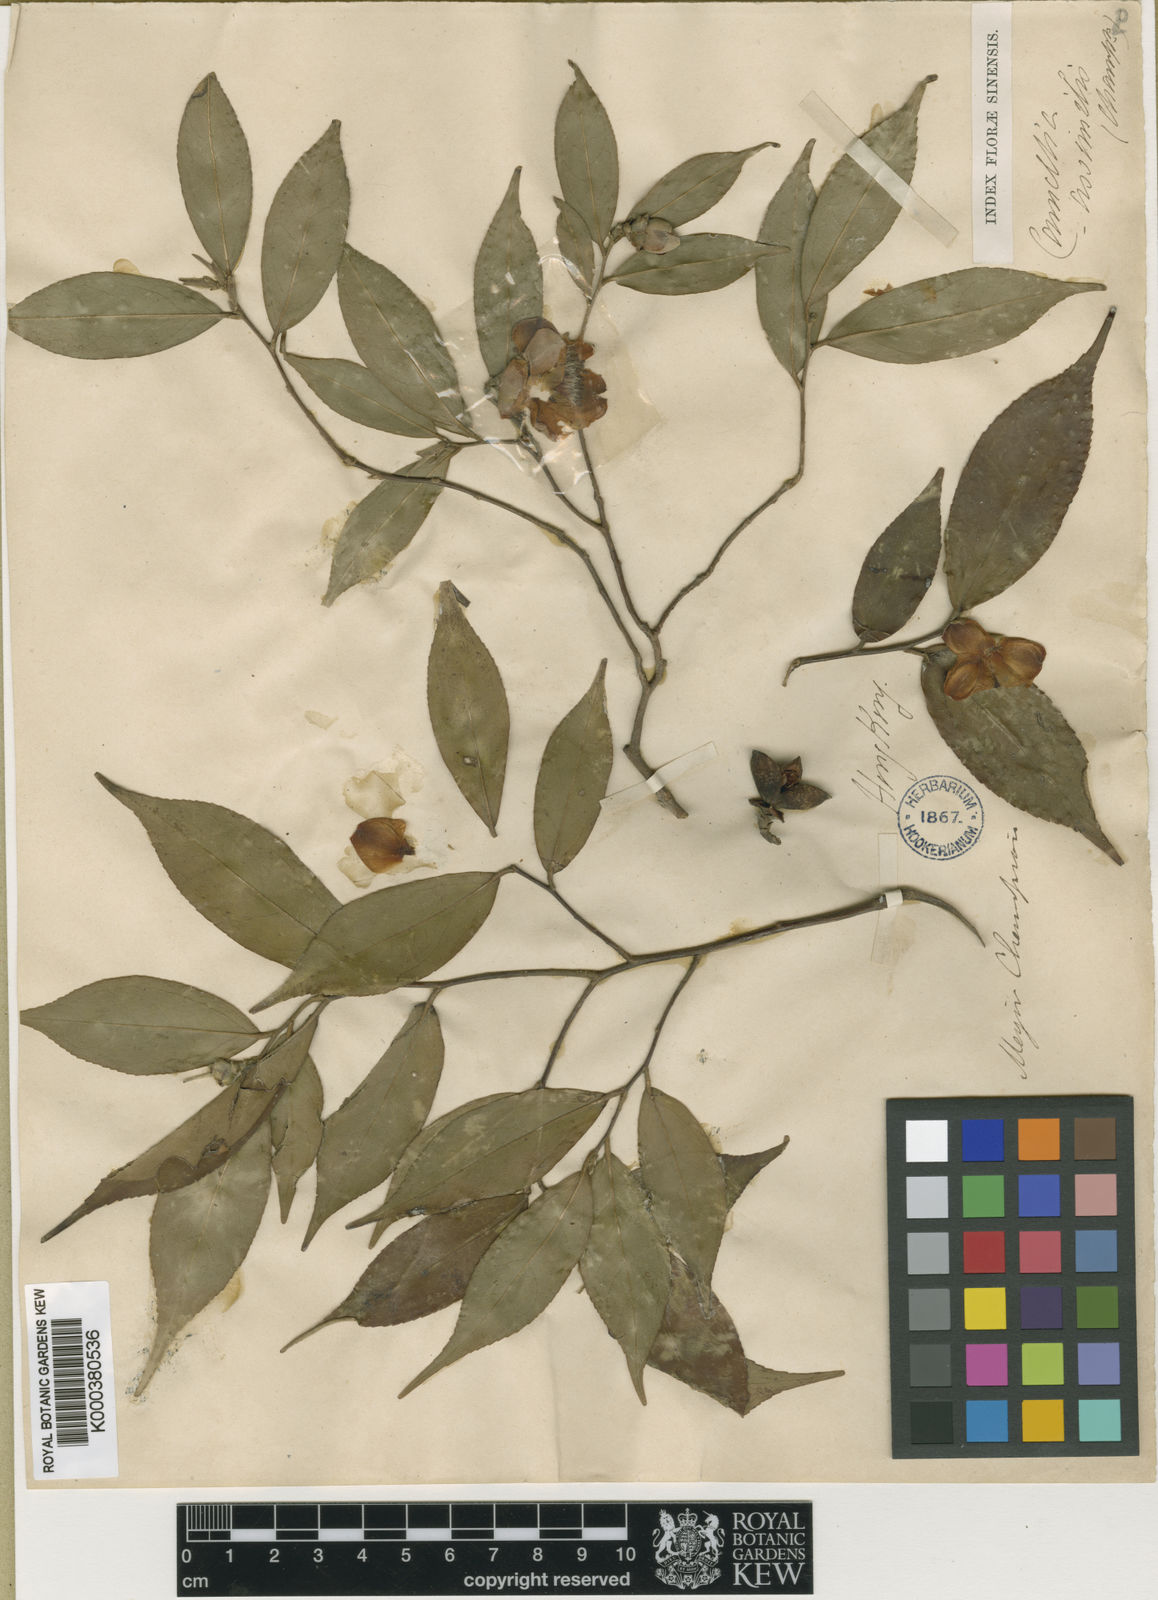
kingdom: Plantae
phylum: Tracheophyta
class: Magnoliopsida
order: Ericales
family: Theaceae
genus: Camellia
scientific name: Camellia
